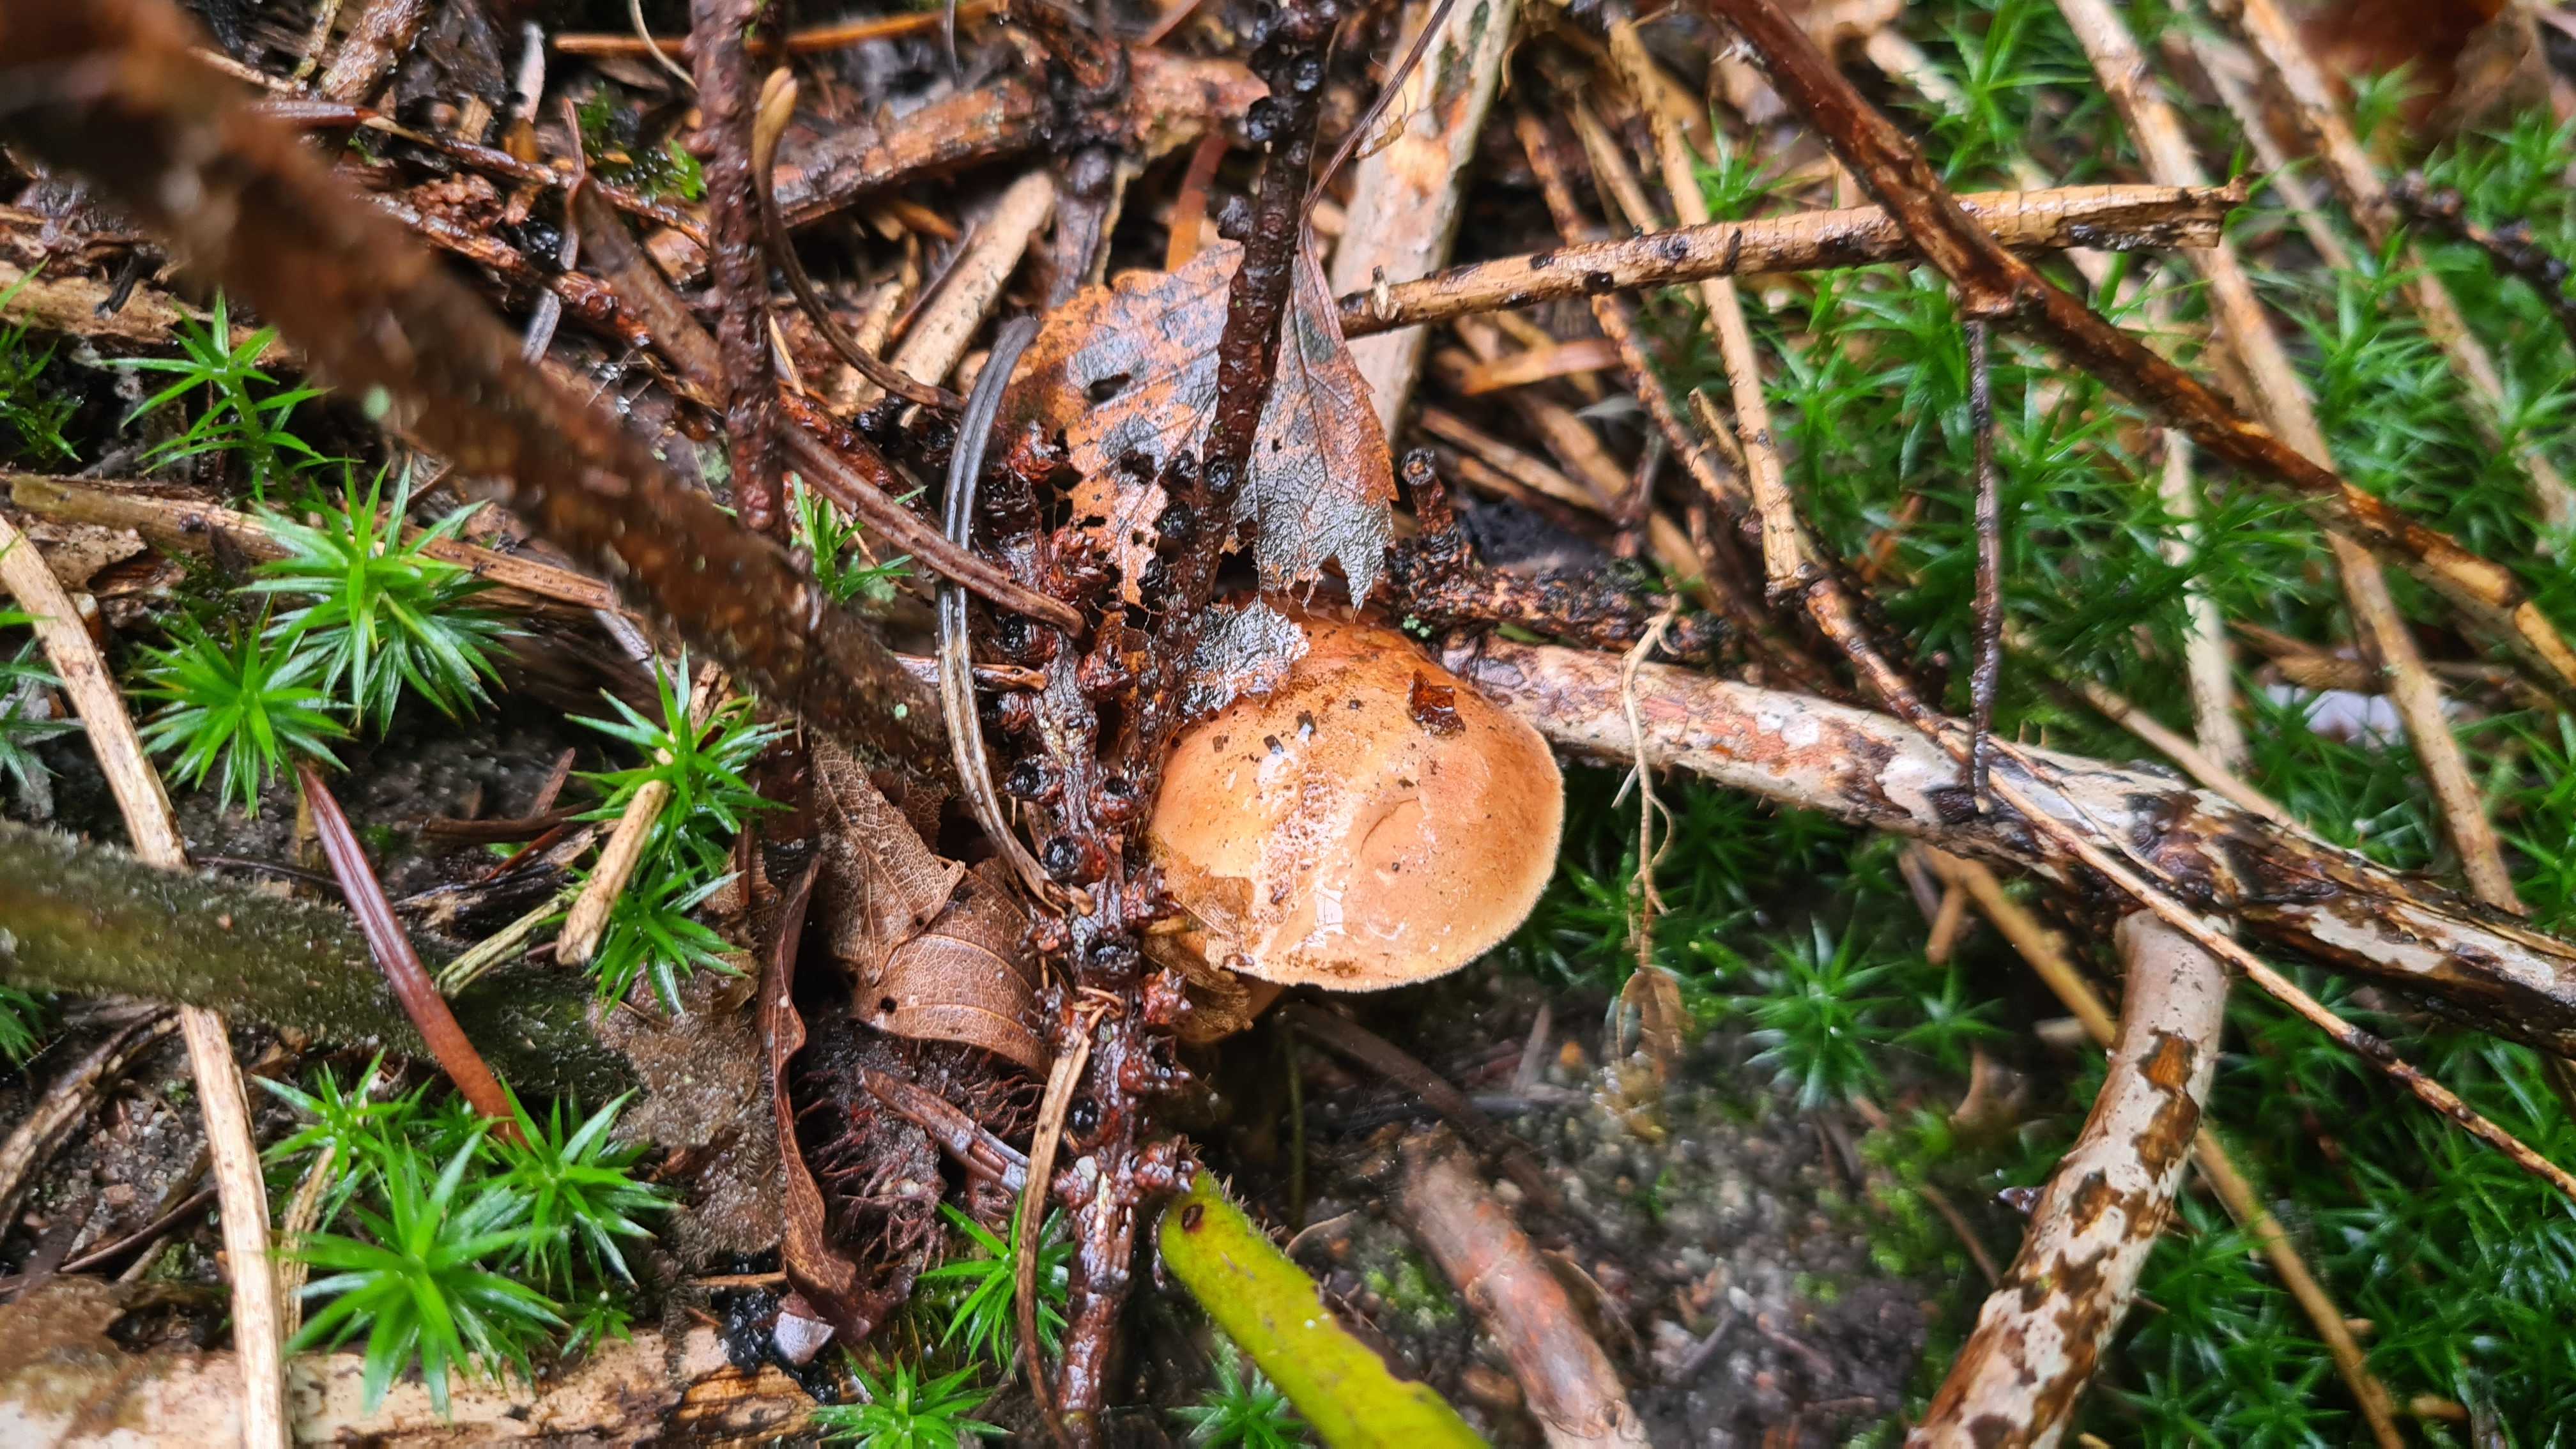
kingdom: Fungi
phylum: Basidiomycota
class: Agaricomycetes
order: Boletales
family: Boletaceae
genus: Chalciporus
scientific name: Chalciporus piperatus
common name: peberrørhat
